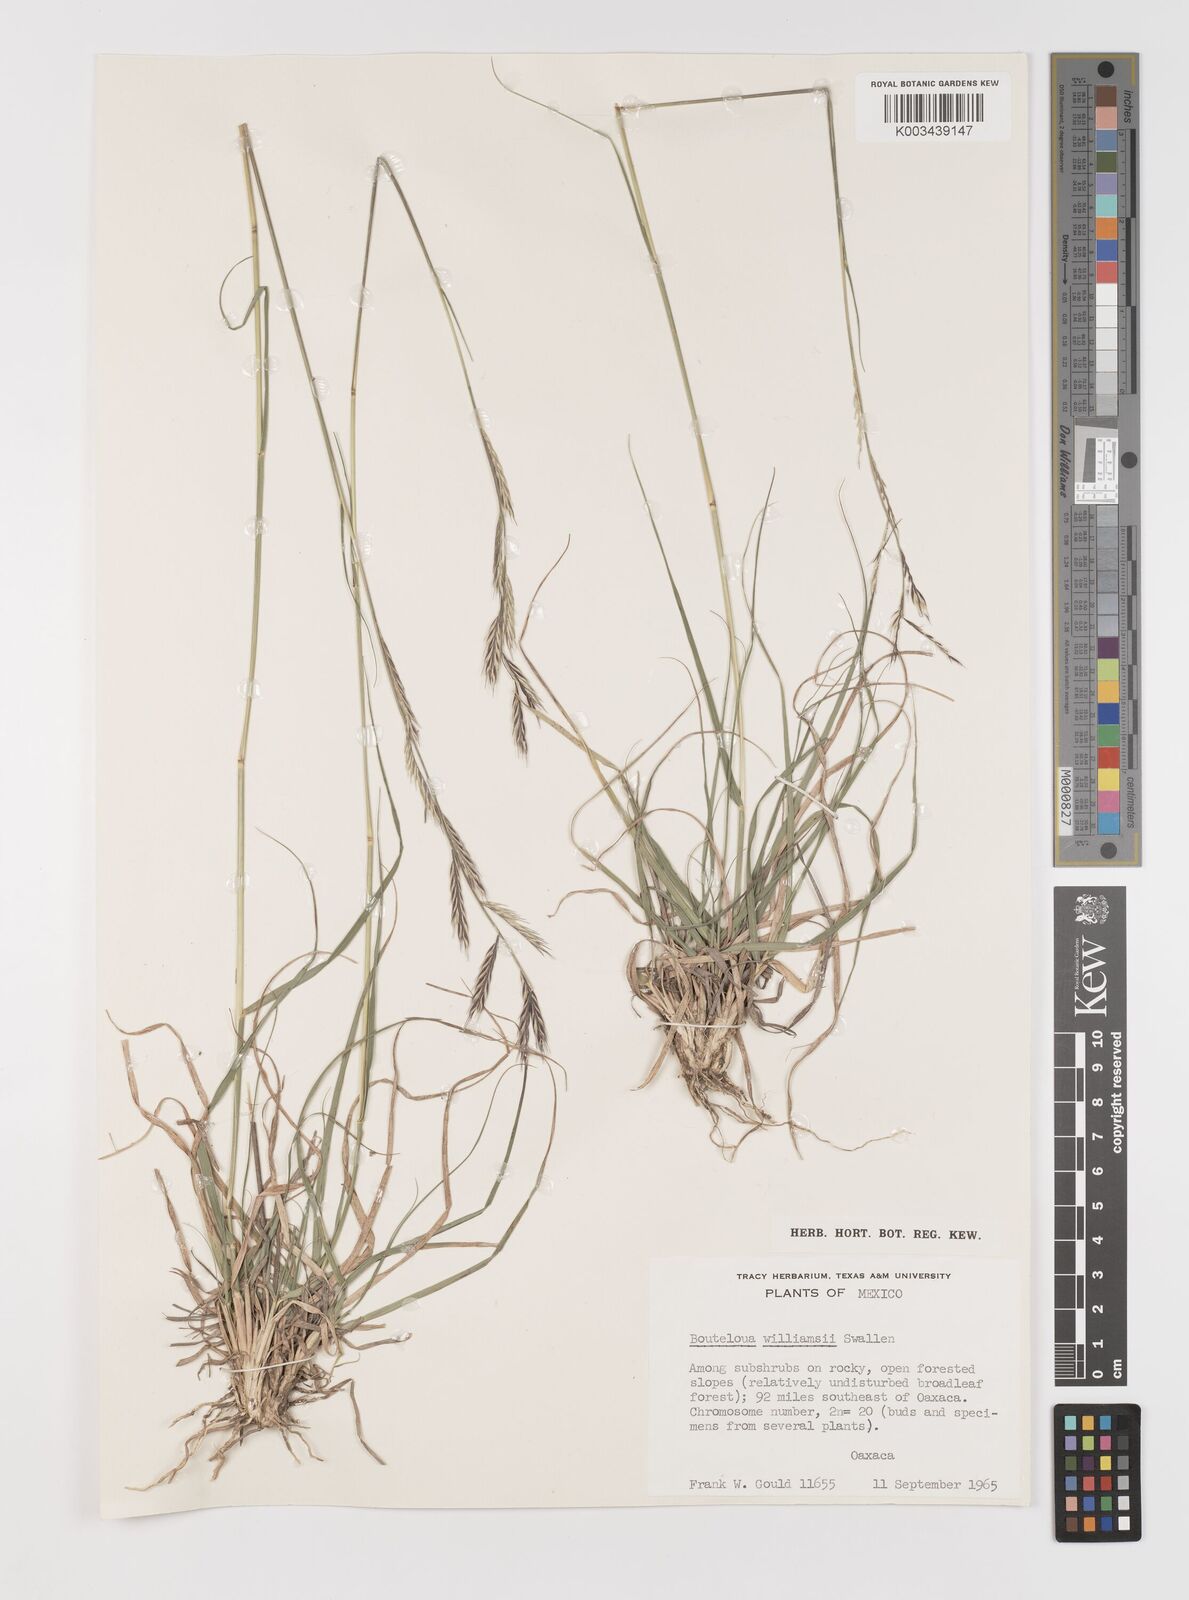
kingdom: Plantae
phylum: Tracheophyta
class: Liliopsida
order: Poales
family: Poaceae
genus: Bouteloua
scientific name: Bouteloua williamsii
